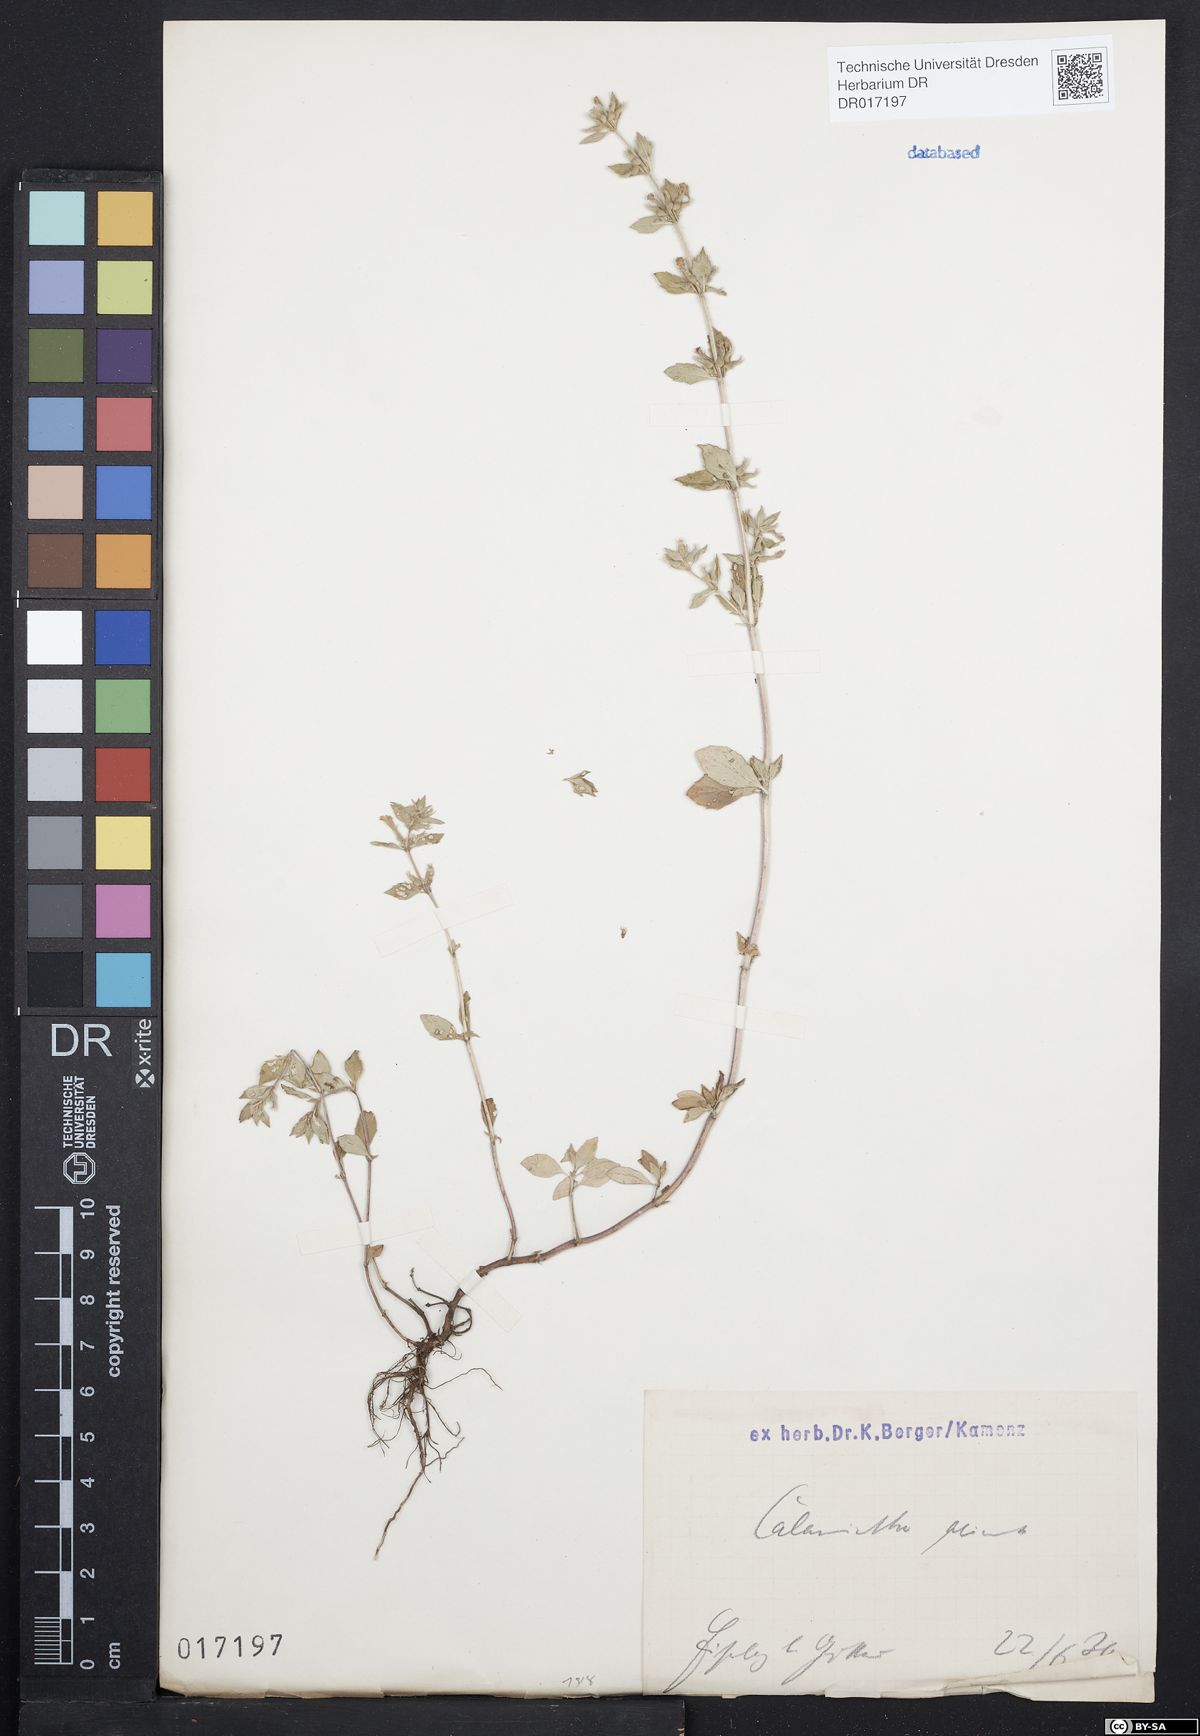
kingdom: Plantae
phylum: Tracheophyta
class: Magnoliopsida
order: Lamiales
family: Lamiaceae
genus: Clinopodium
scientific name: Clinopodium acinos
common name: Basil thyme
